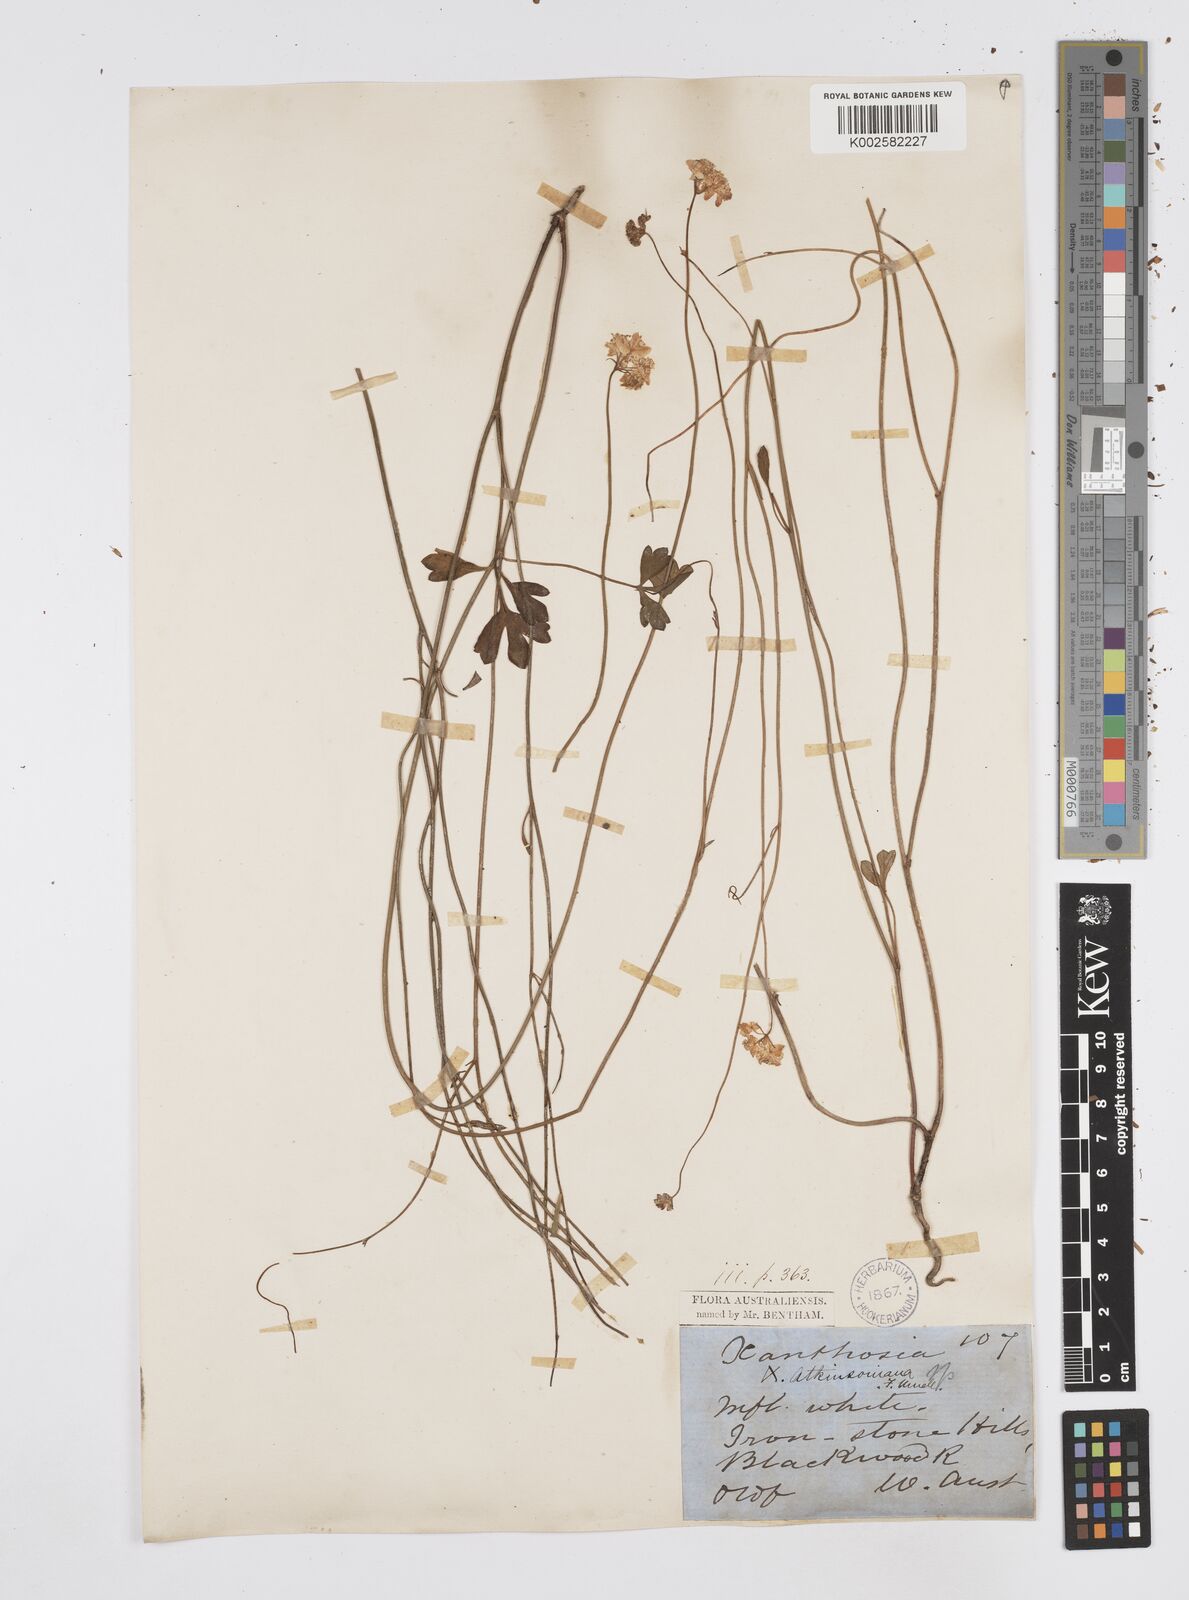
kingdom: Plantae
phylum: Tracheophyta
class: Magnoliopsida
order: Apiales
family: Apiaceae
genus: Xanthosia
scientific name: Xanthosia atkinsoniana
